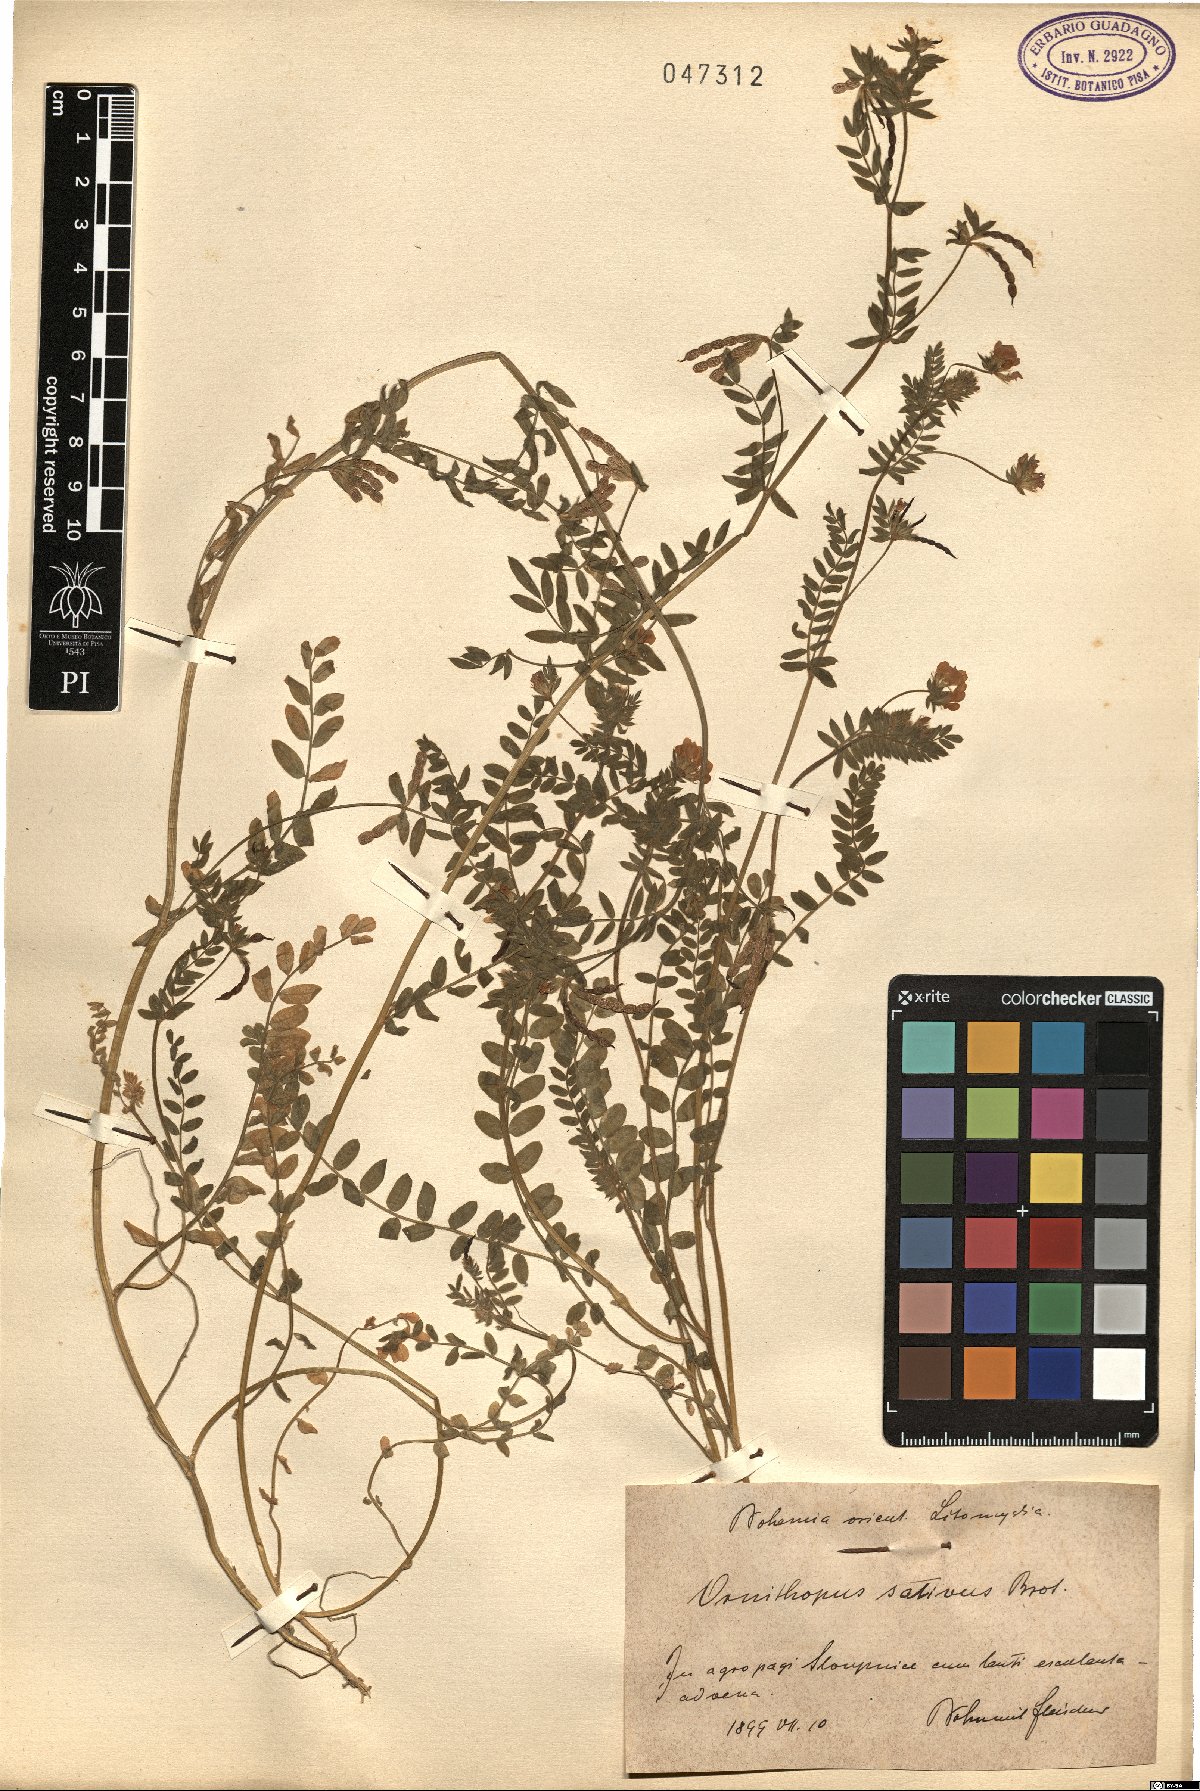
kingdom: Plantae
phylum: Tracheophyta
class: Magnoliopsida
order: Fabales
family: Fabaceae
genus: Ornithopus
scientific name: Ornithopus sativus
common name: Serradella
